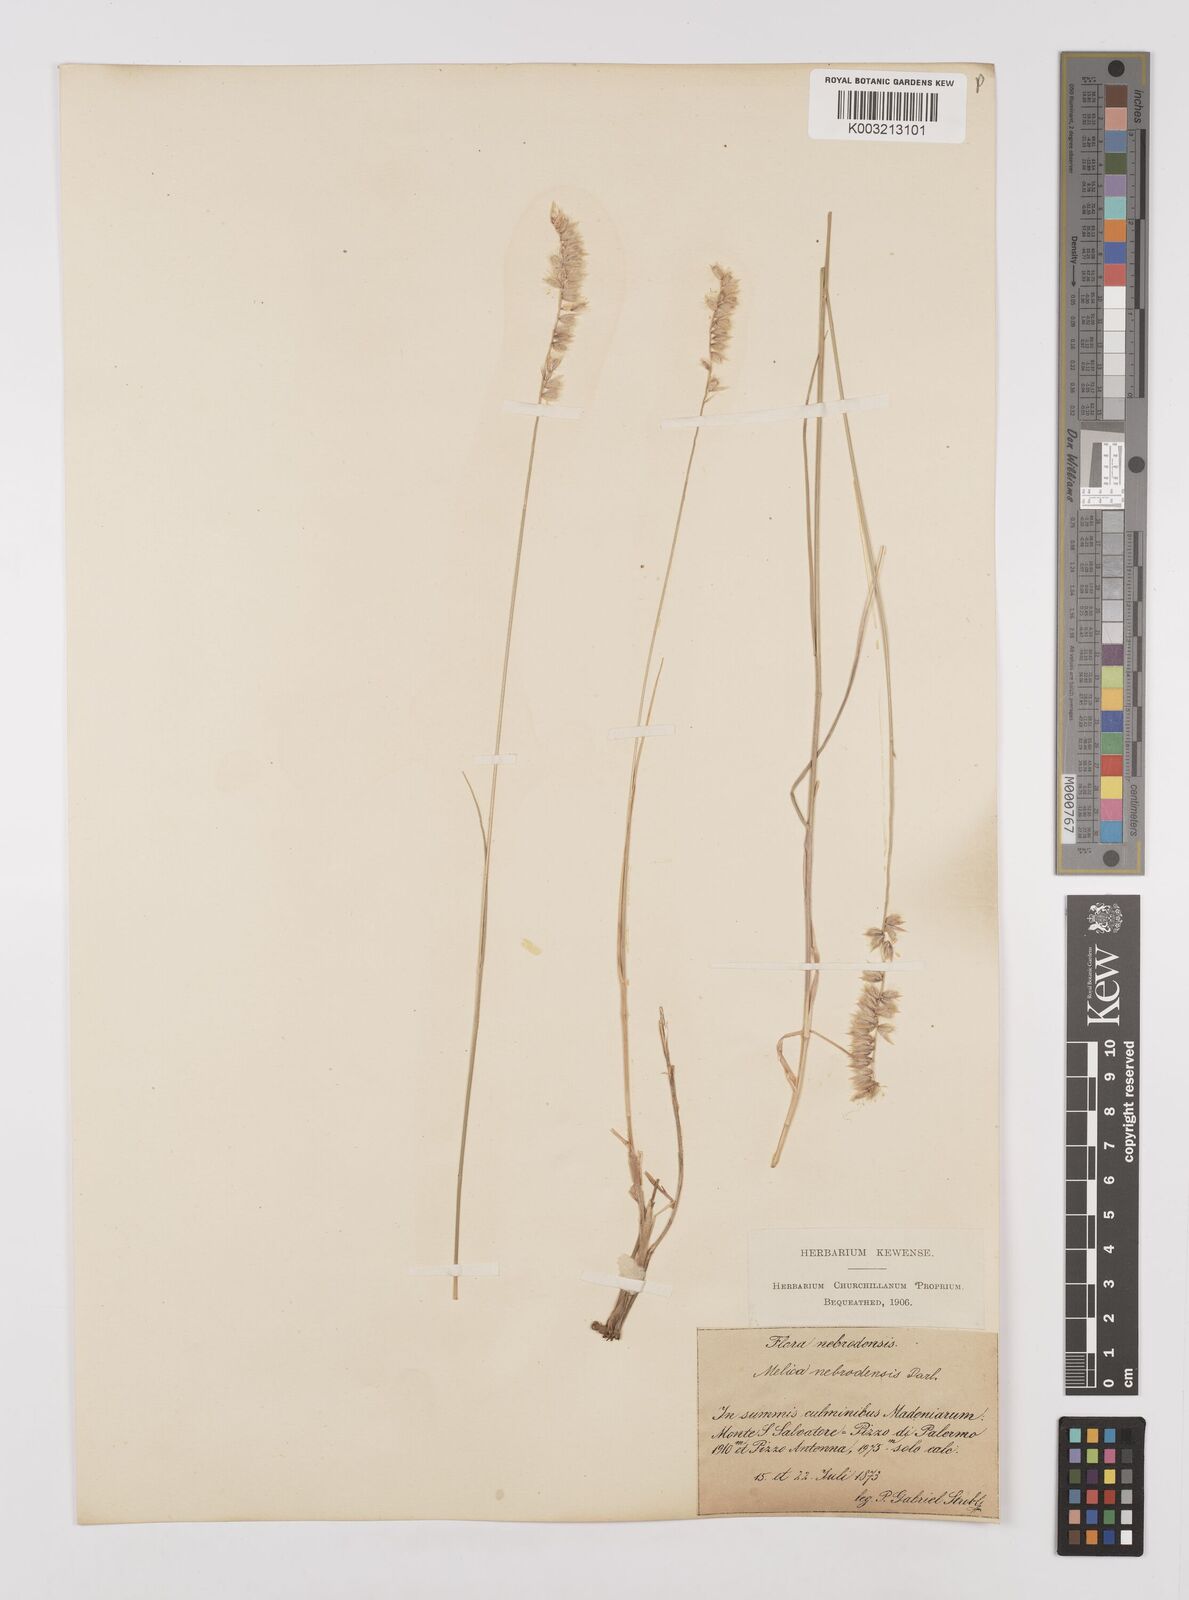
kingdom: Plantae
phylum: Tracheophyta
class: Liliopsida
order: Poales
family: Poaceae
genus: Melica
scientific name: Melica ciliata
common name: Hairy melicgrass
